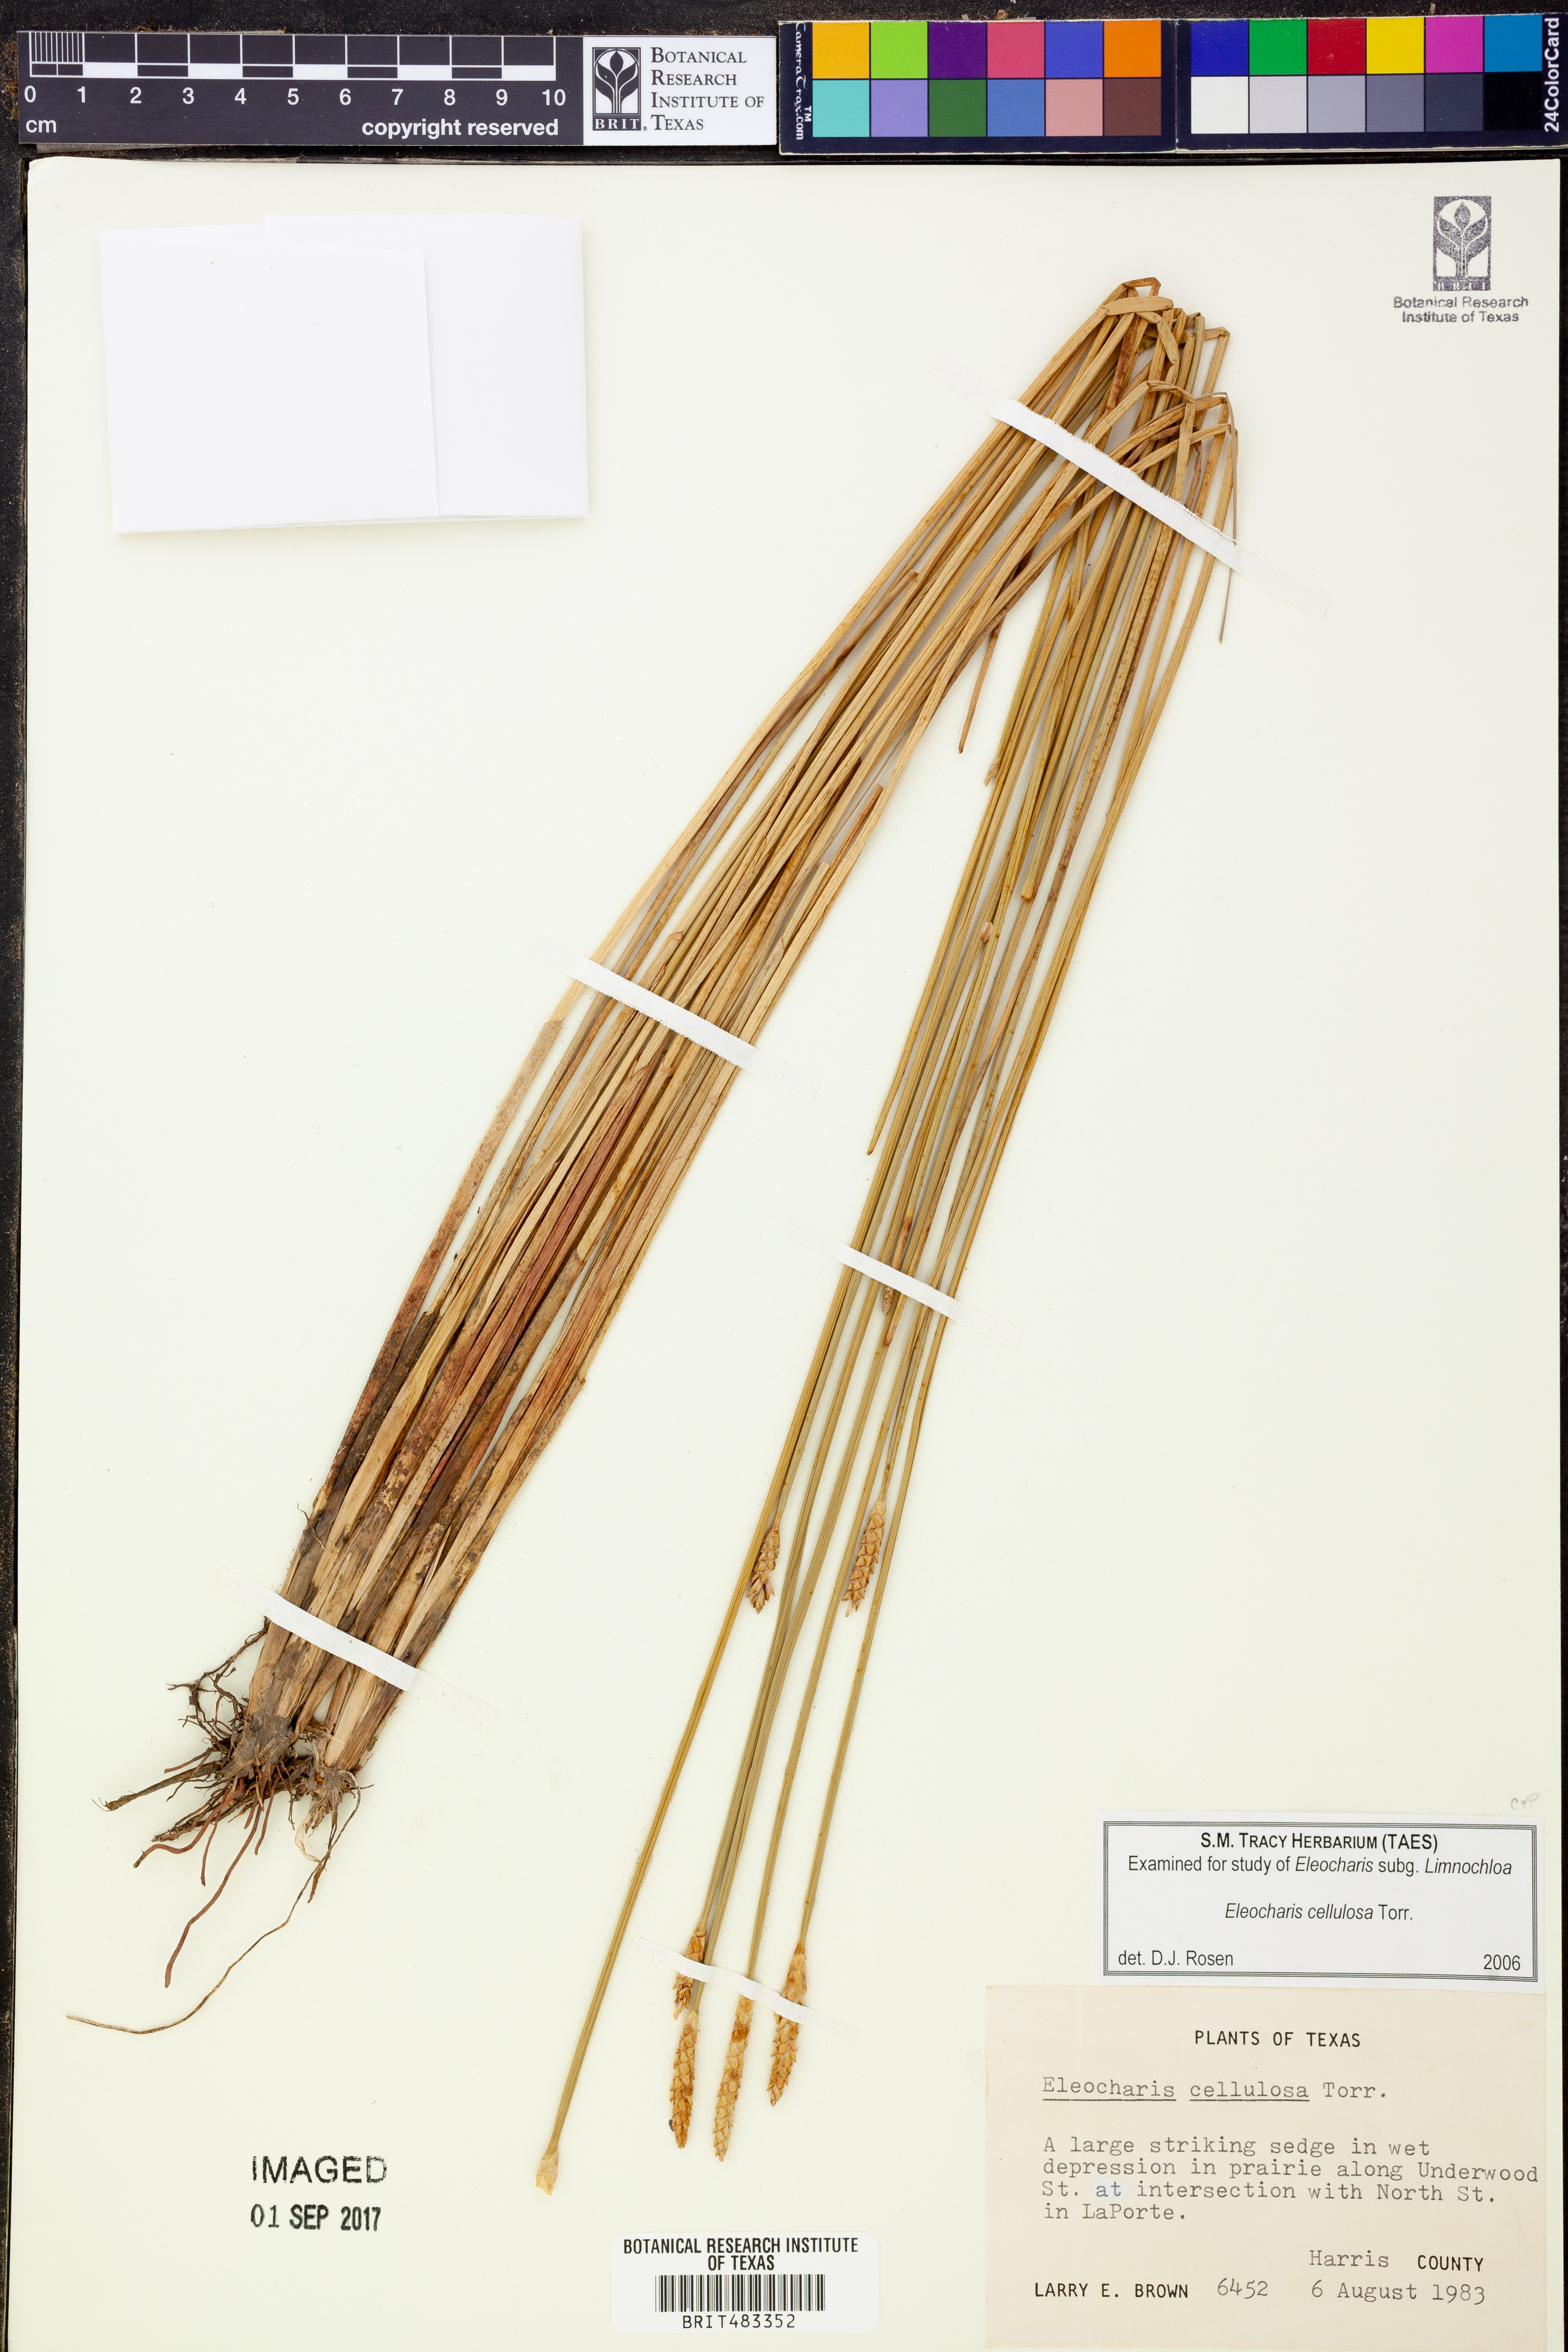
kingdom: Plantae
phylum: Tracheophyta
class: Liliopsida
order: Poales
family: Cyperaceae
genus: Eleocharis
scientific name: Eleocharis cellulosa
